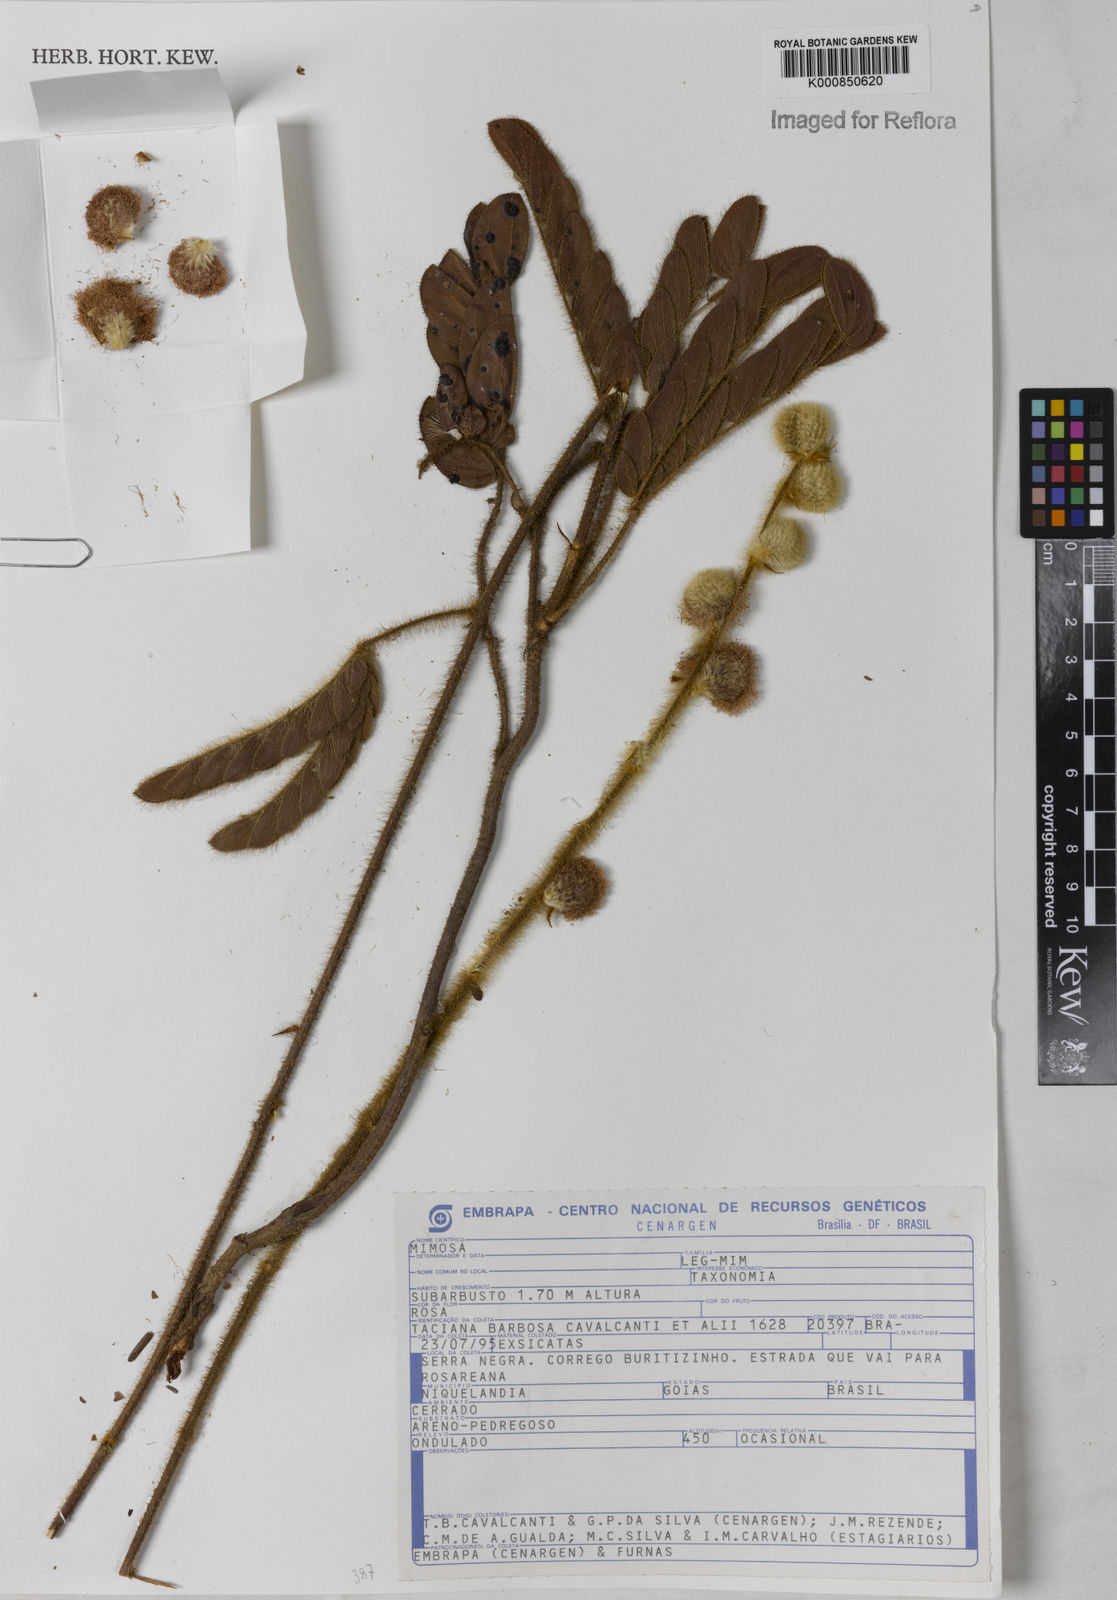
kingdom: Plantae
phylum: Tracheophyta
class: Magnoliopsida
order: Fabales
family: Fabaceae
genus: Mimosa
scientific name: Mimosa
